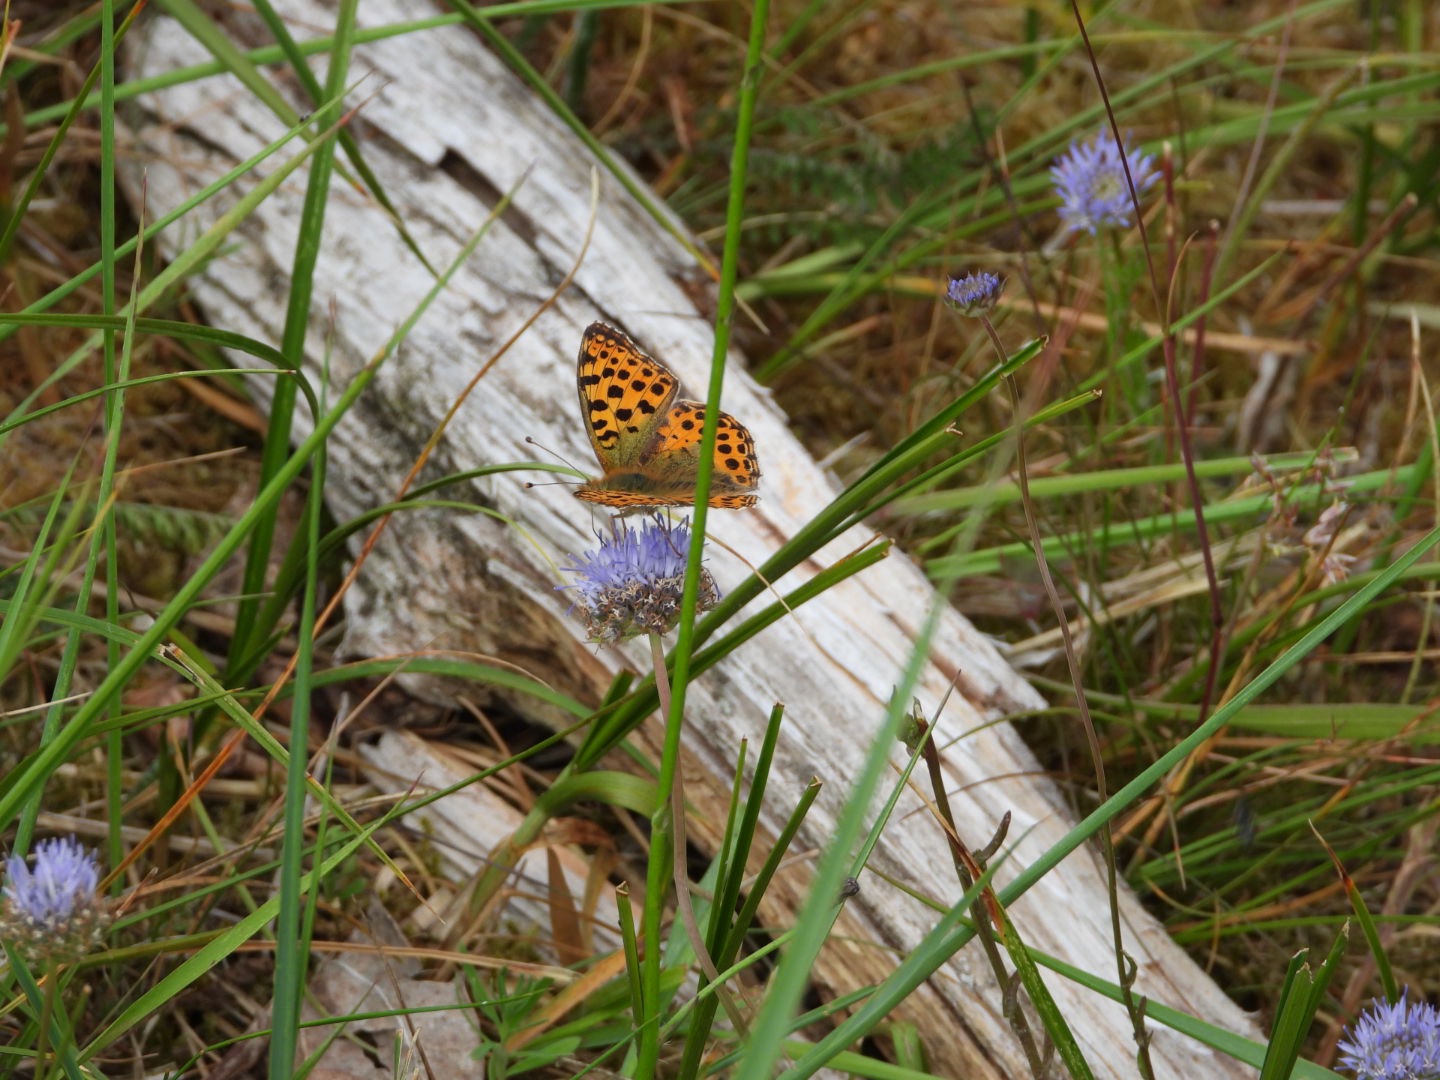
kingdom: Animalia
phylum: Arthropoda
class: Insecta
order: Lepidoptera
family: Nymphalidae
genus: Issoria
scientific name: Issoria lathonia
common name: Storplettet perlemorsommerfugl
